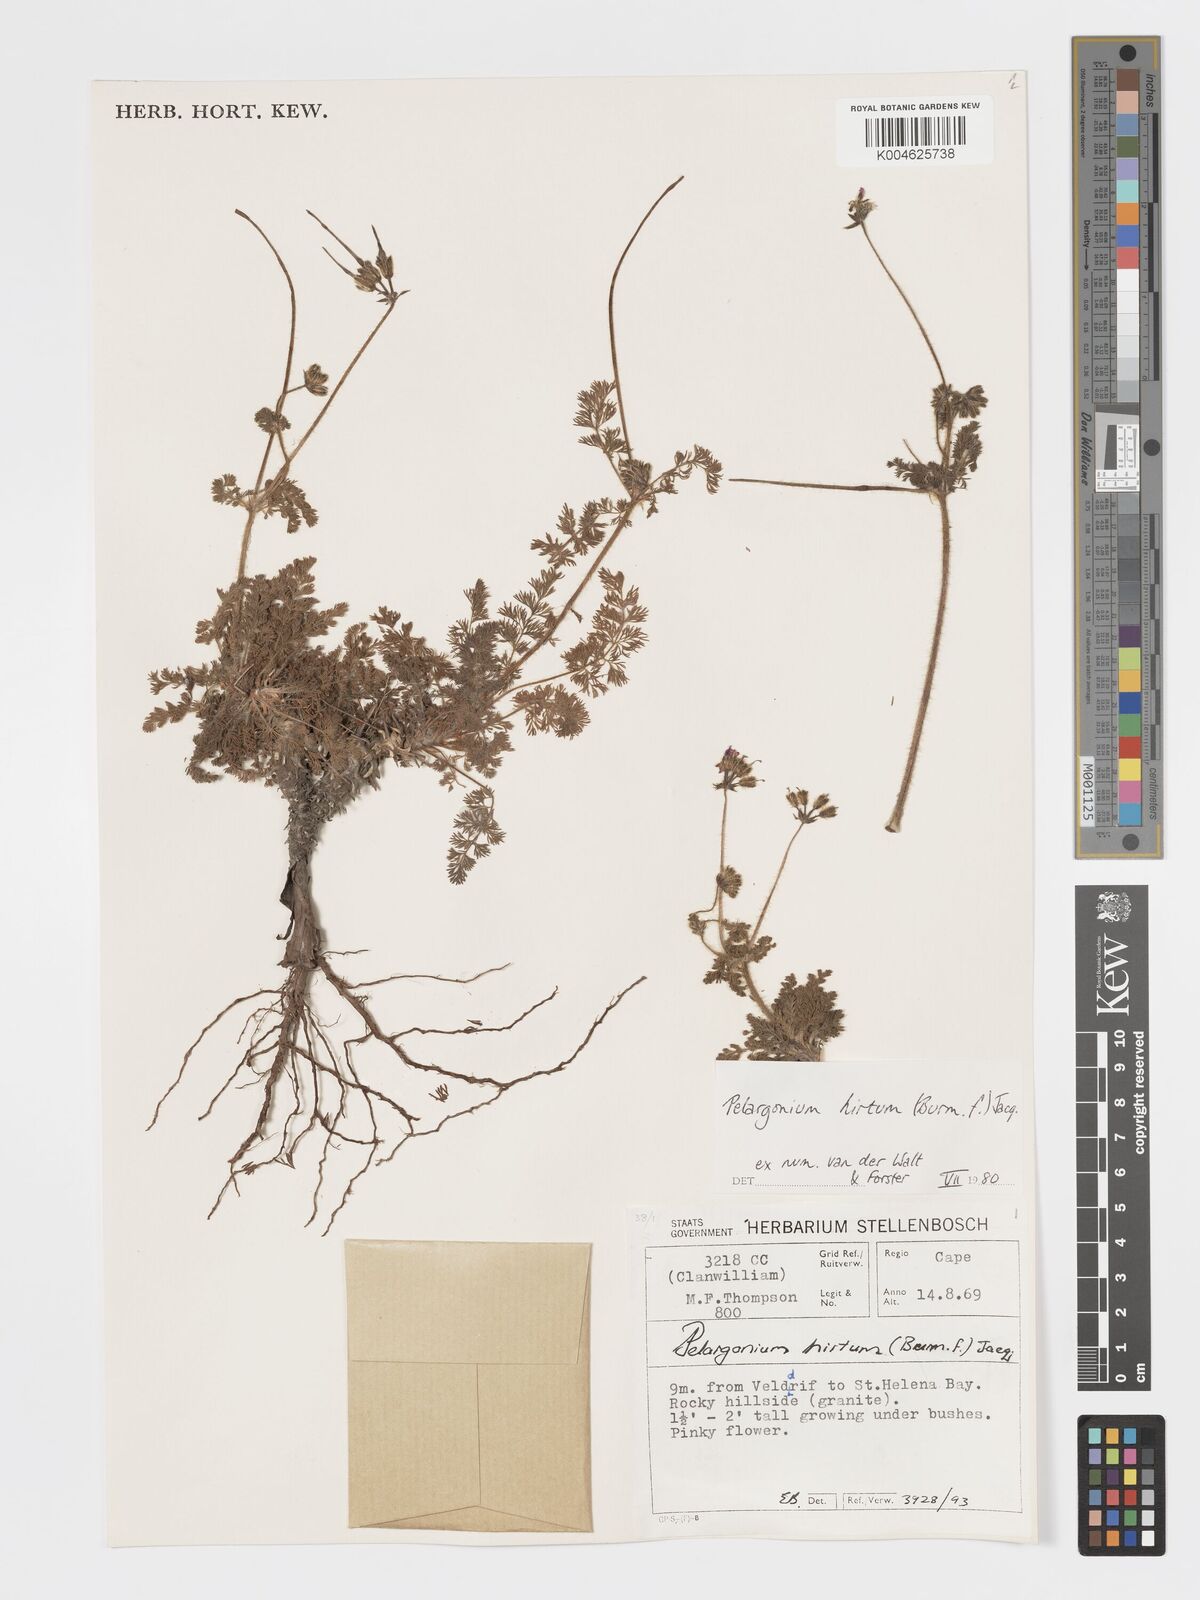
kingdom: Plantae
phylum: Tracheophyta
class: Magnoliopsida
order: Geraniales
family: Geraniaceae
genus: Pelargonium
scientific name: Pelargonium
